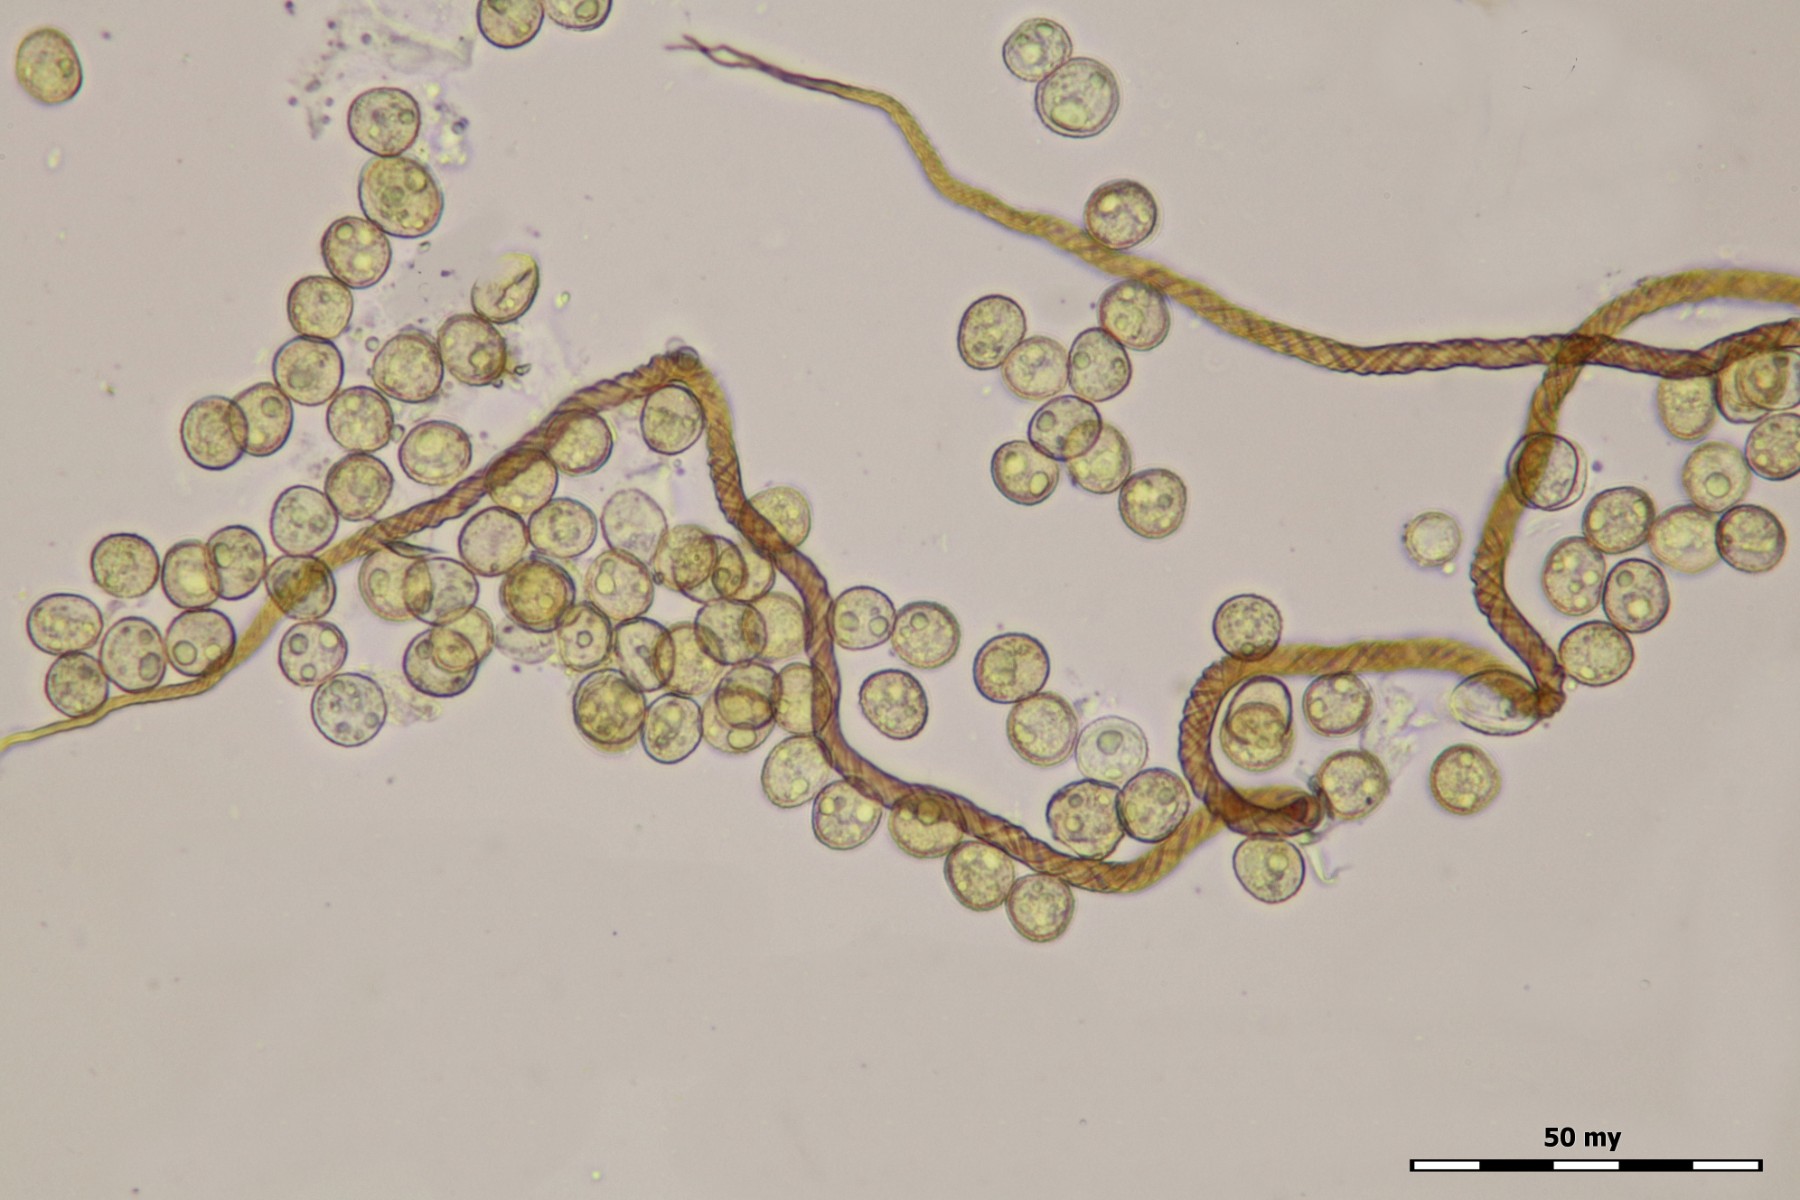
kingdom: Protozoa
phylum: Mycetozoa
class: Myxomycetes
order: Trichiales
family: Trichiaceae
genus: Trichia
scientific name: Trichia botrytis
